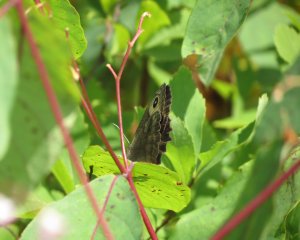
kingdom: Animalia
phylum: Arthropoda
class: Insecta
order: Lepidoptera
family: Nymphalidae
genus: Cercyonis
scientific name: Cercyonis pegala
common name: Common Wood-Nymph
